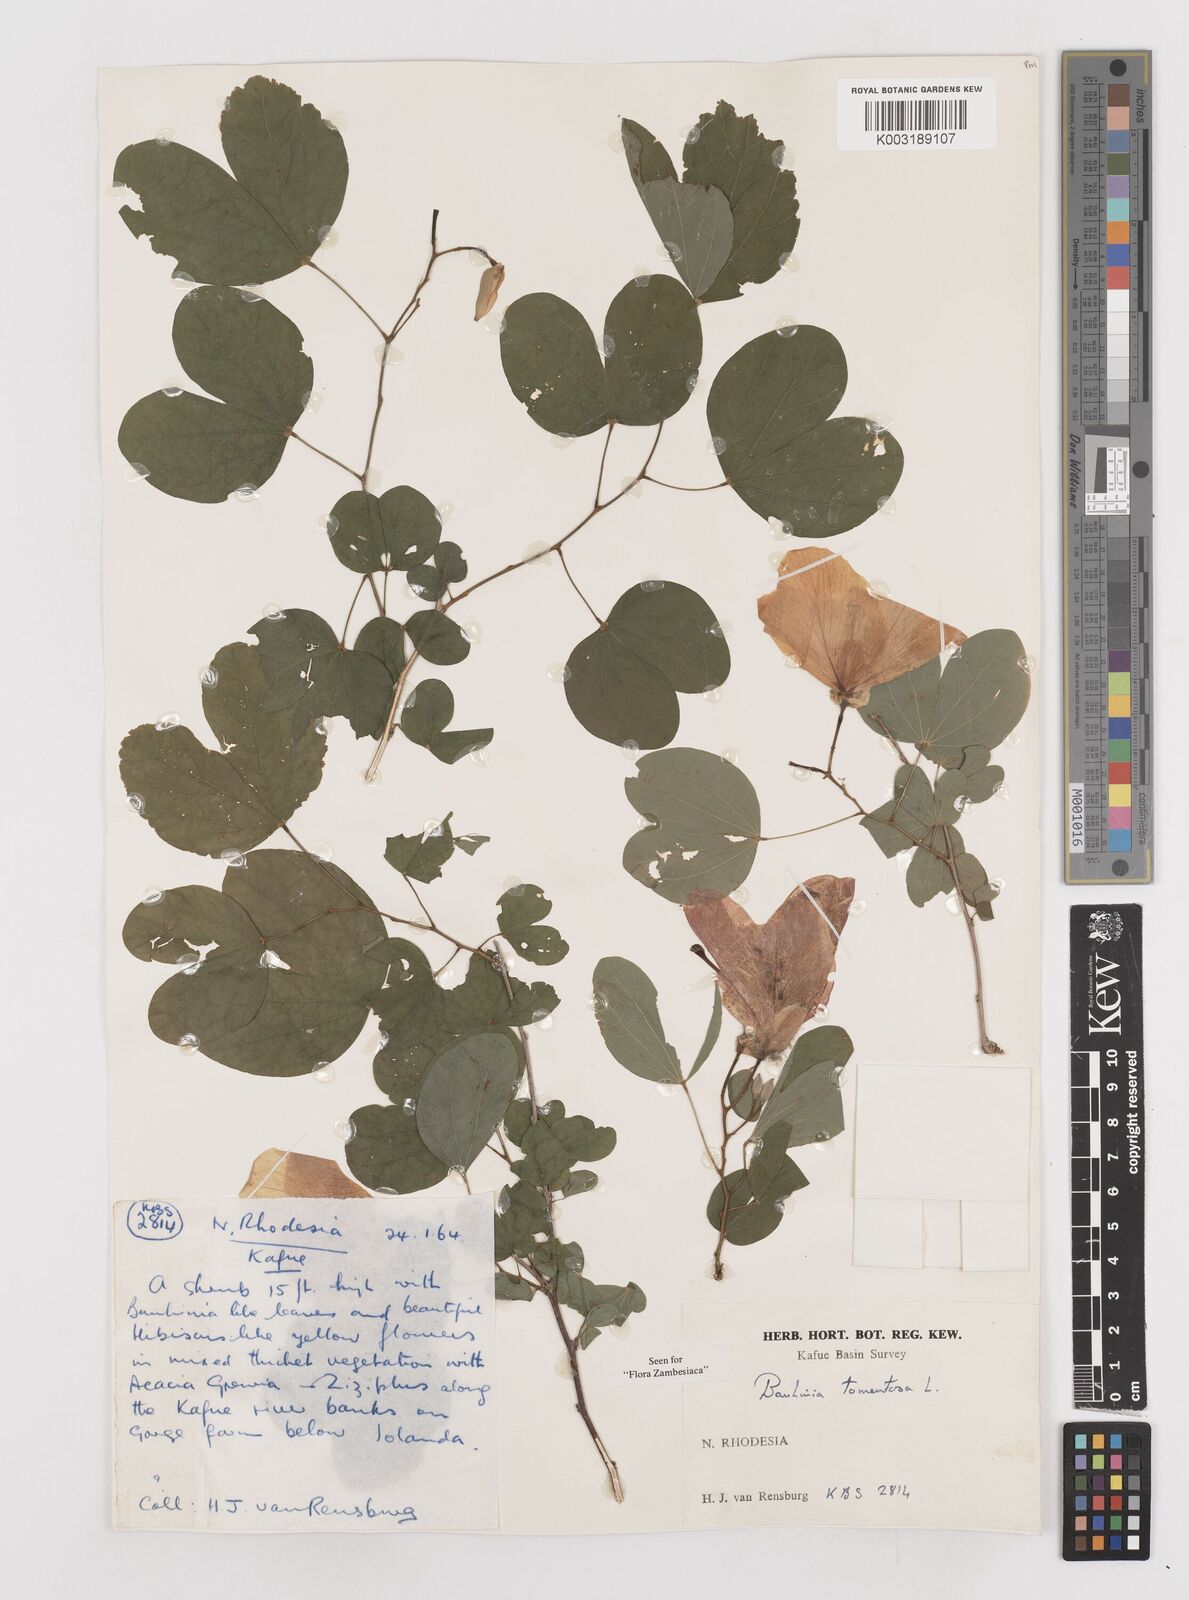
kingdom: Plantae
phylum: Tracheophyta
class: Magnoliopsida
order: Fabales
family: Fabaceae
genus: Bauhinia
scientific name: Bauhinia tomentosa
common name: Bell bauhinia
